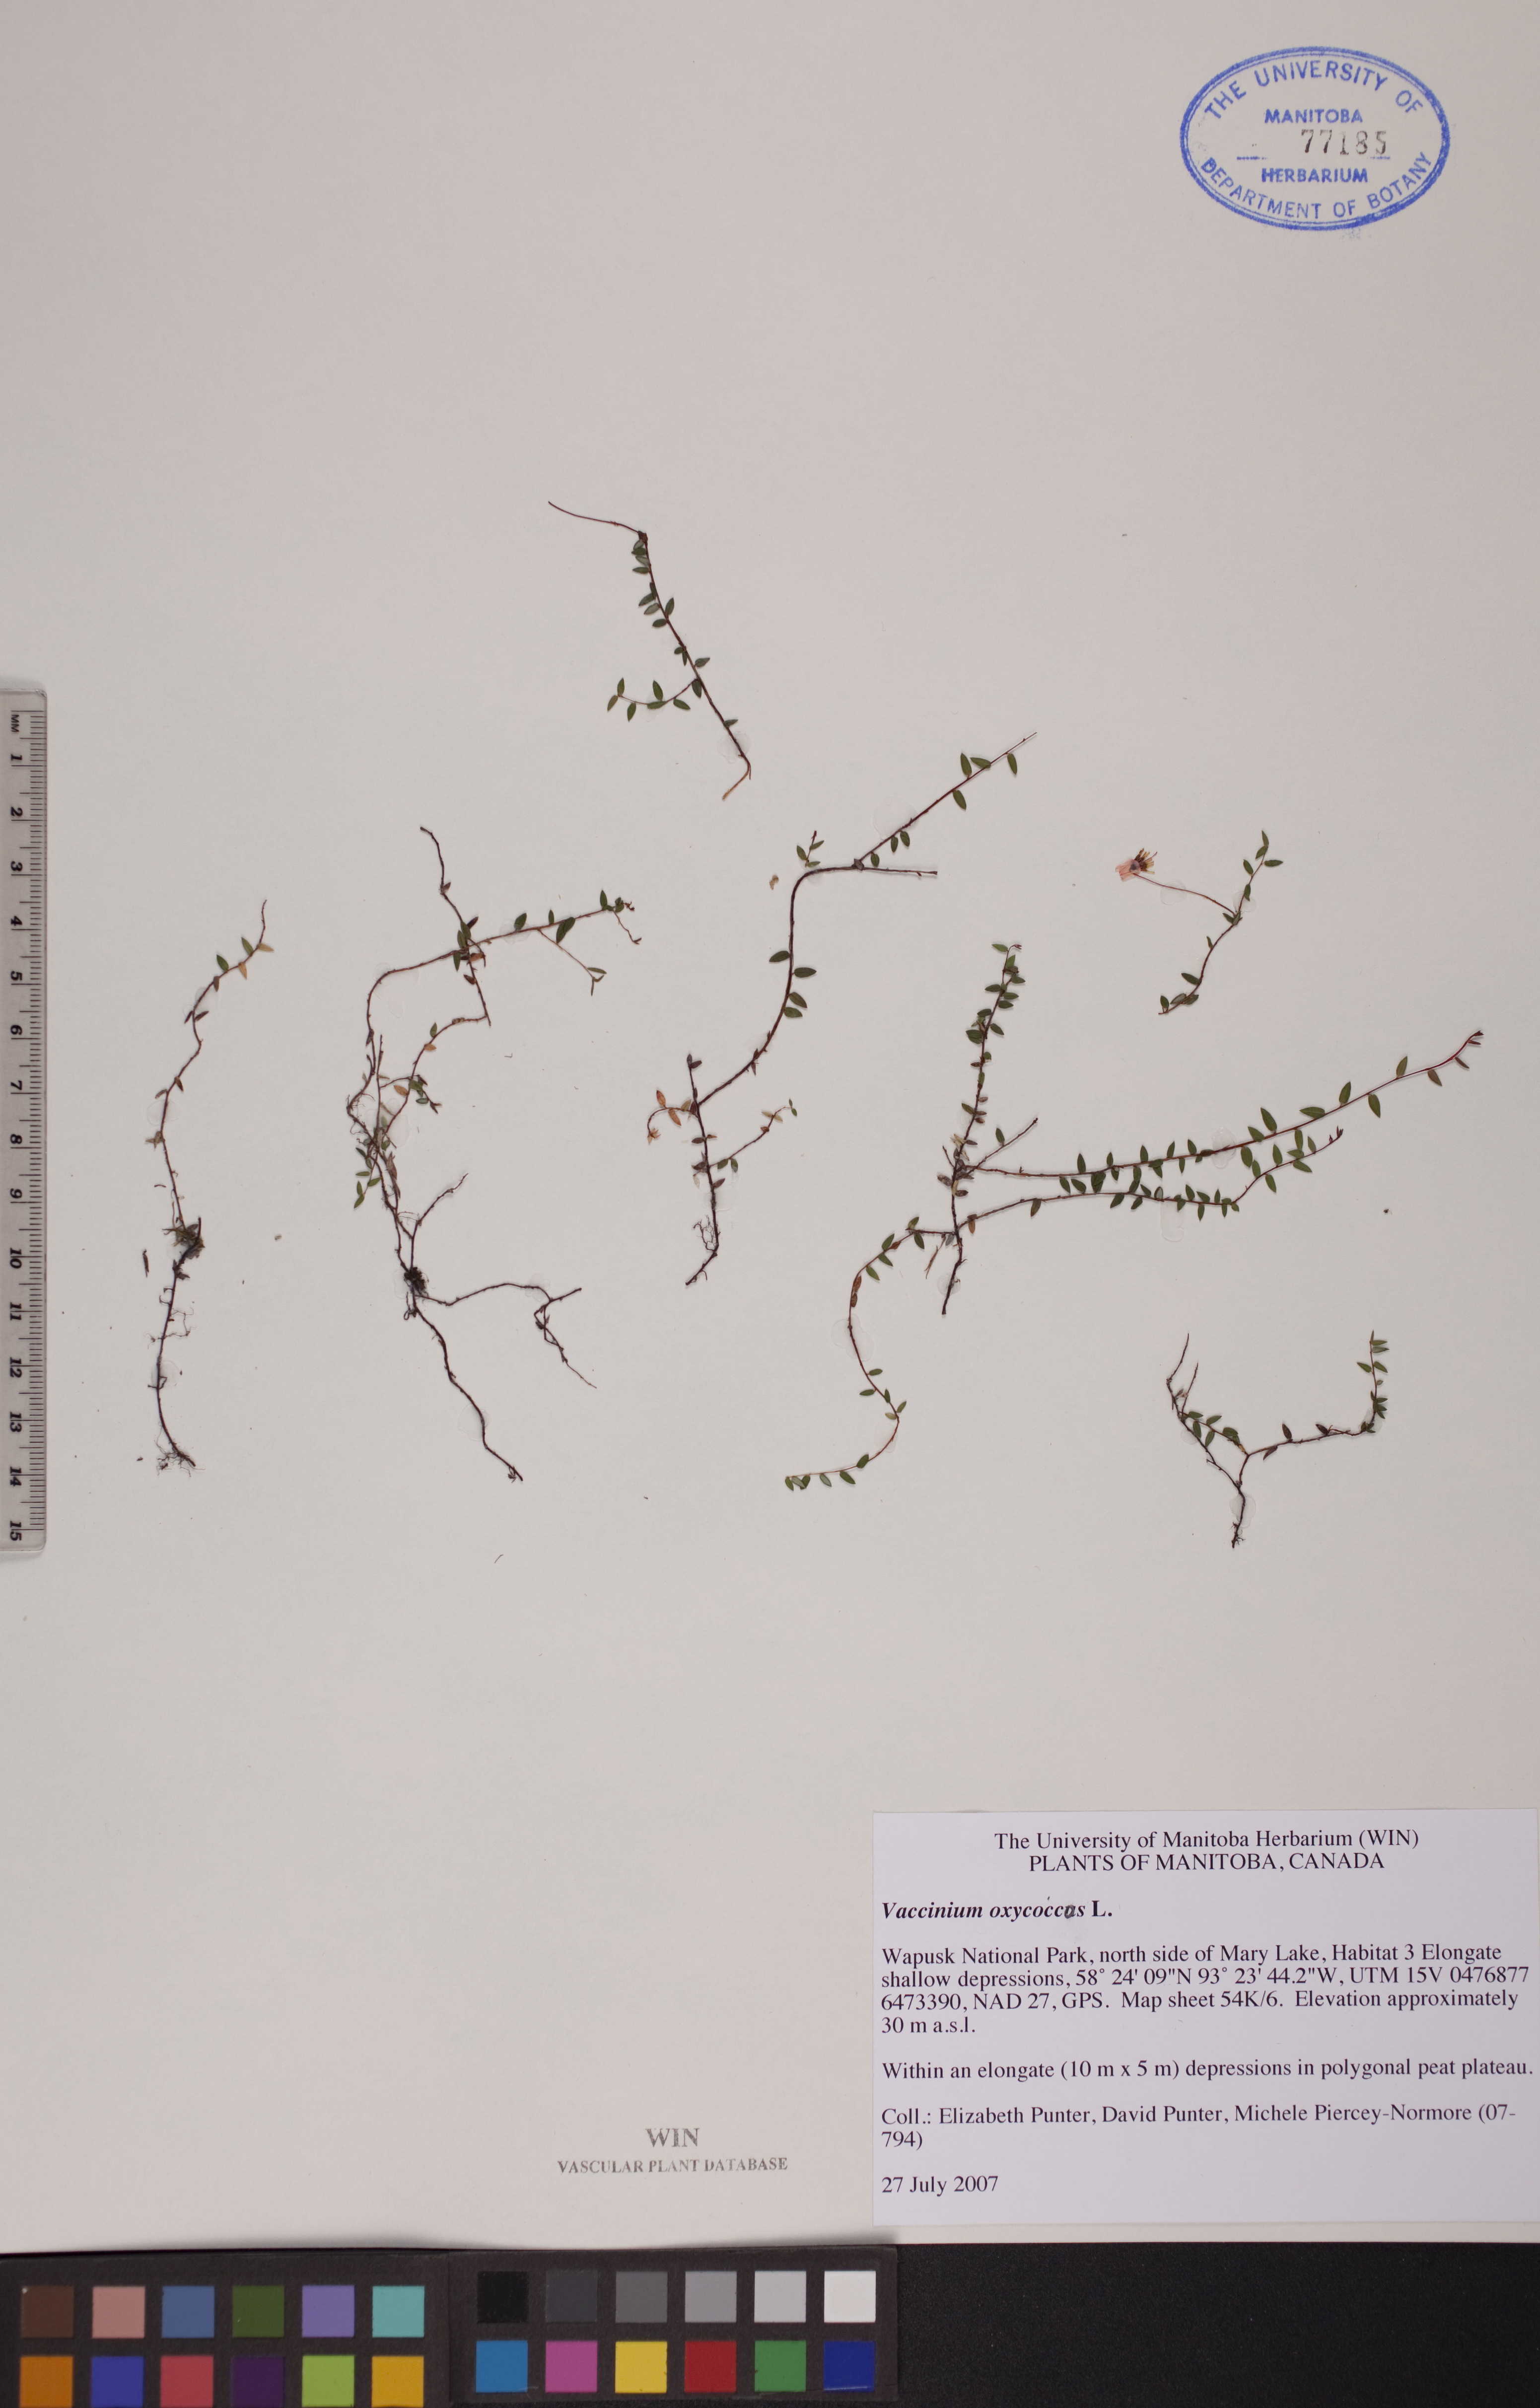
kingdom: Plantae
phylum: Tracheophyta
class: Magnoliopsida
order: Ericales
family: Ericaceae
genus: Vaccinium
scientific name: Vaccinium oxycoccos
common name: Cranberry
